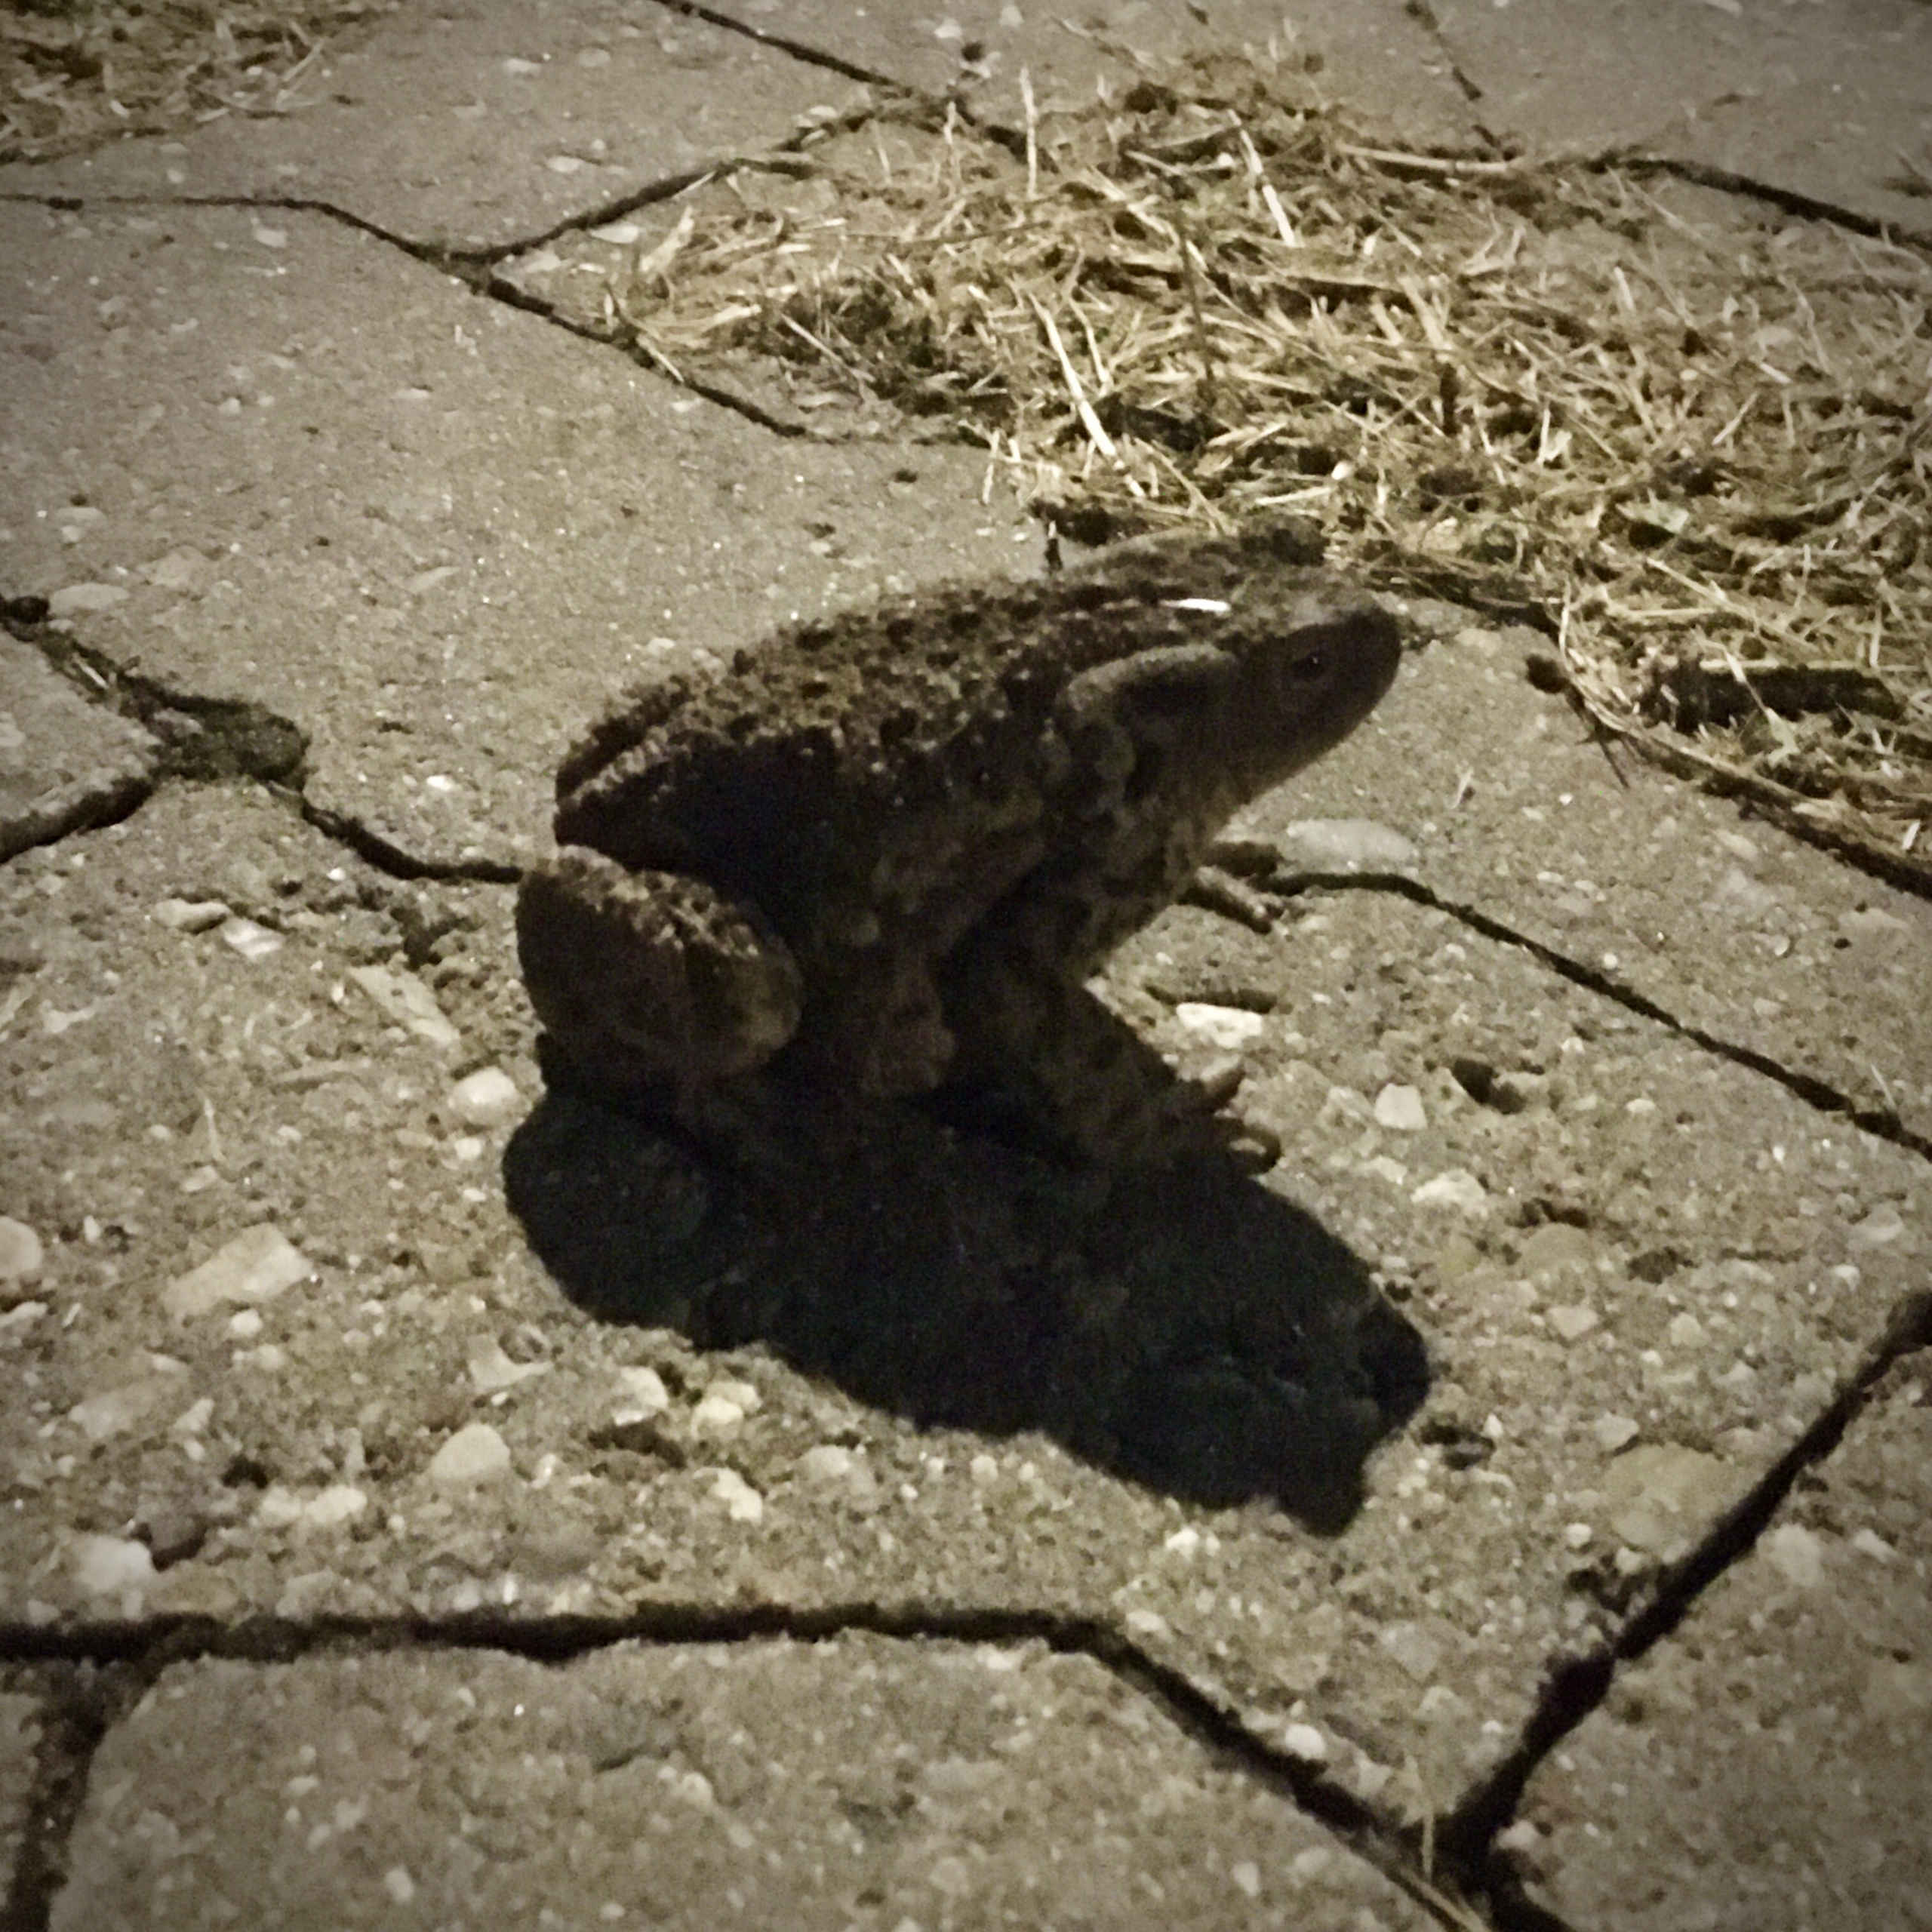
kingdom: Animalia
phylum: Chordata
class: Amphibia
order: Anura
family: Bufonidae
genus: Bufo
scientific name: Bufo bufo
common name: Skrubtudse
